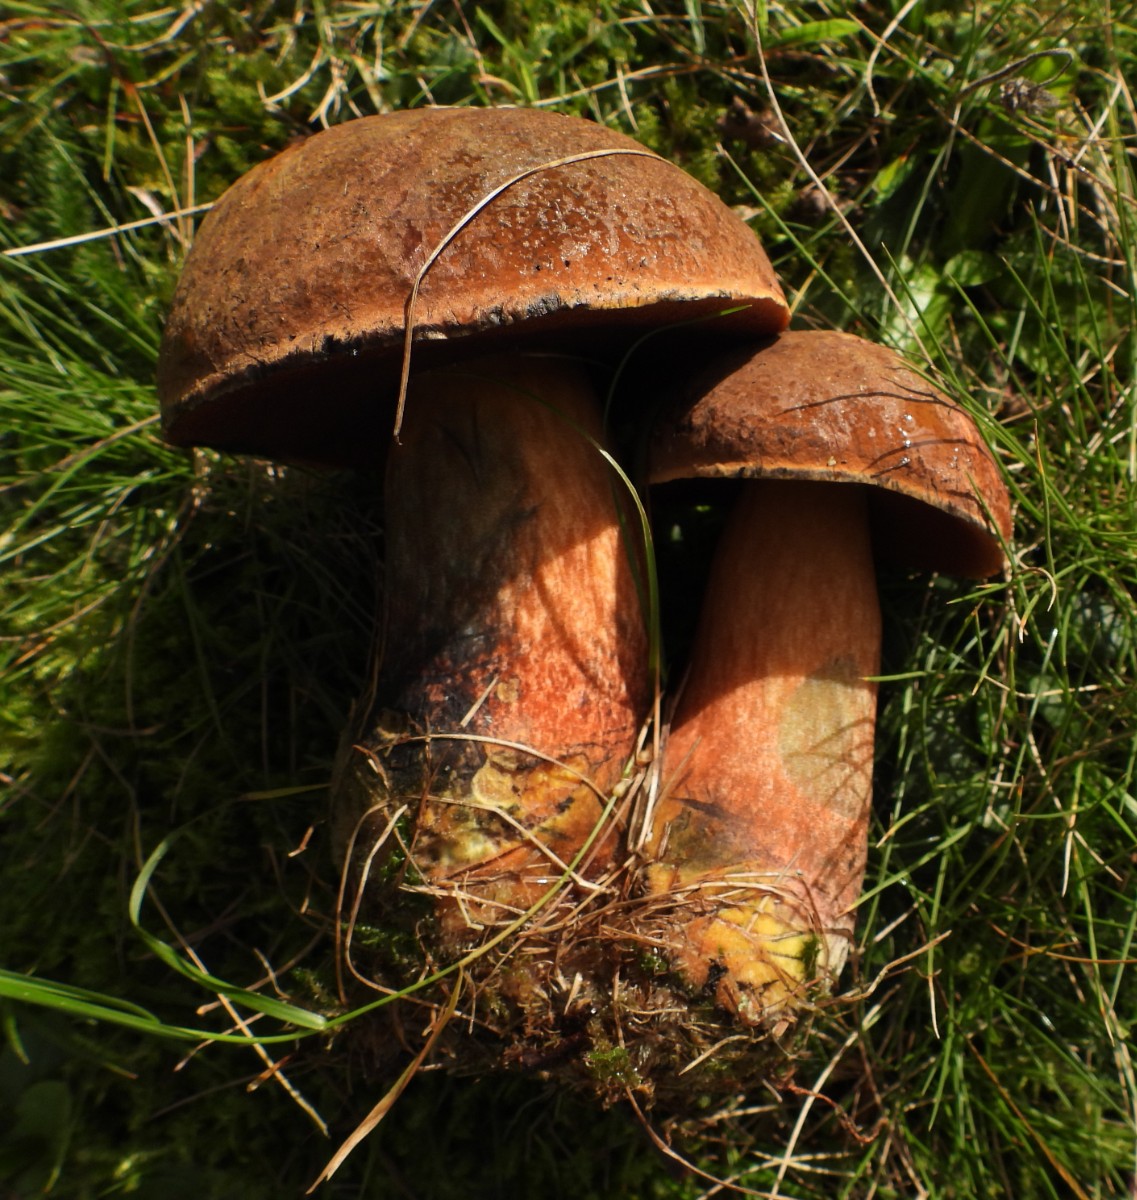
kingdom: Fungi
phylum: Basidiomycota
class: Agaricomycetes
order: Boletales
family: Boletaceae
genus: Neoboletus
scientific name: Neoboletus erythropus
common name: punktstokket indigorørhat
